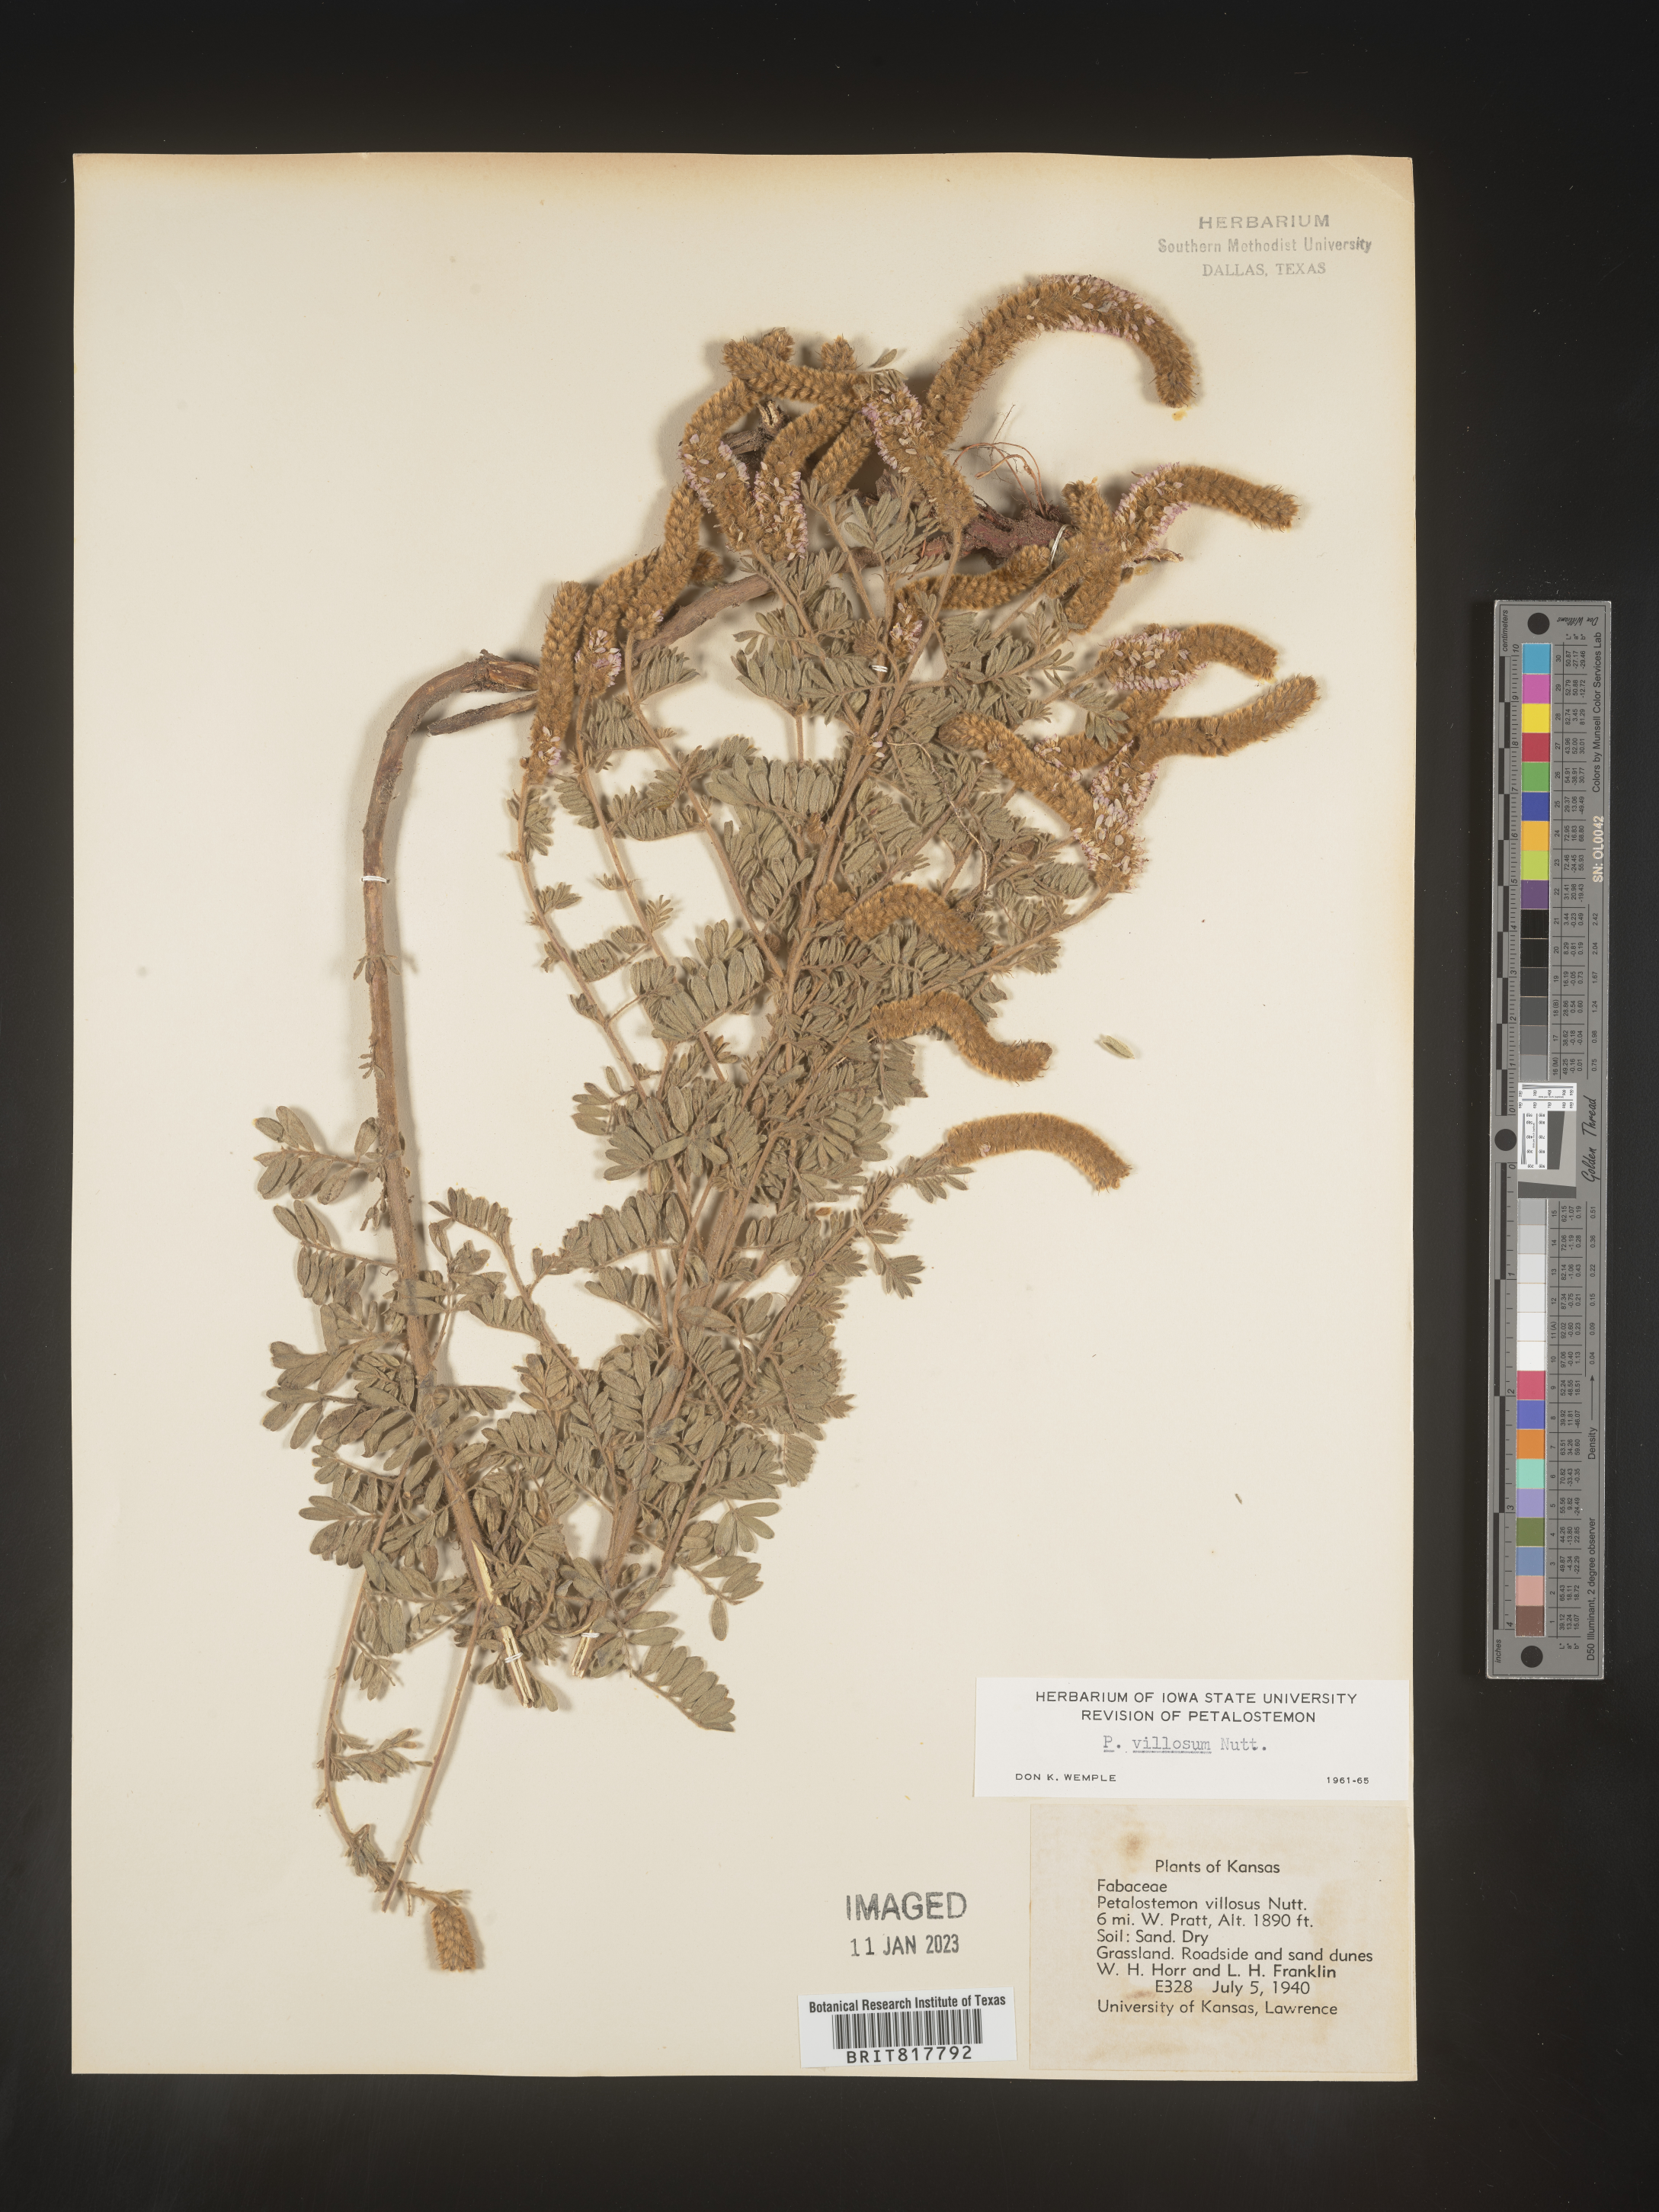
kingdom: Plantae
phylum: Tracheophyta
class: Magnoliopsida
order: Fabales
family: Fabaceae
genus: Dalea
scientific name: Dalea villosa
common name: Silky prairie-clover
